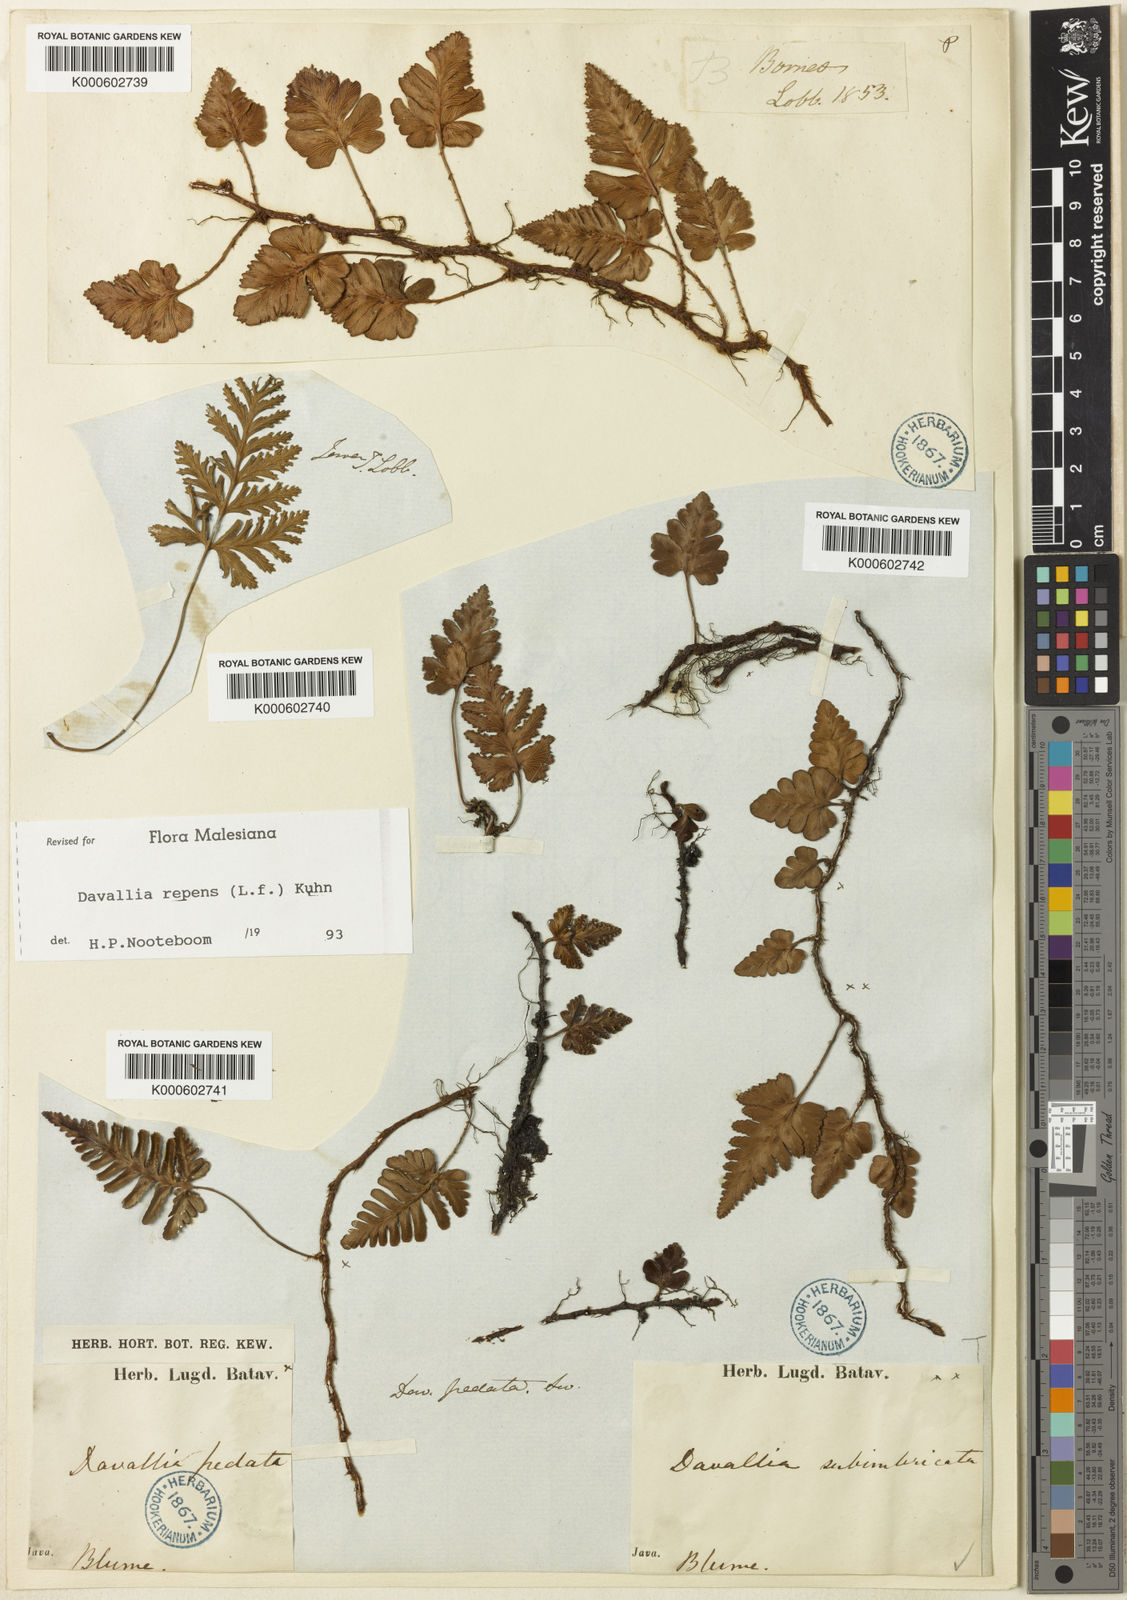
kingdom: Plantae
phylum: Tracheophyta
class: Polypodiopsida
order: Polypodiales
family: Davalliaceae
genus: Davallia
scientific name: Davallia repens
